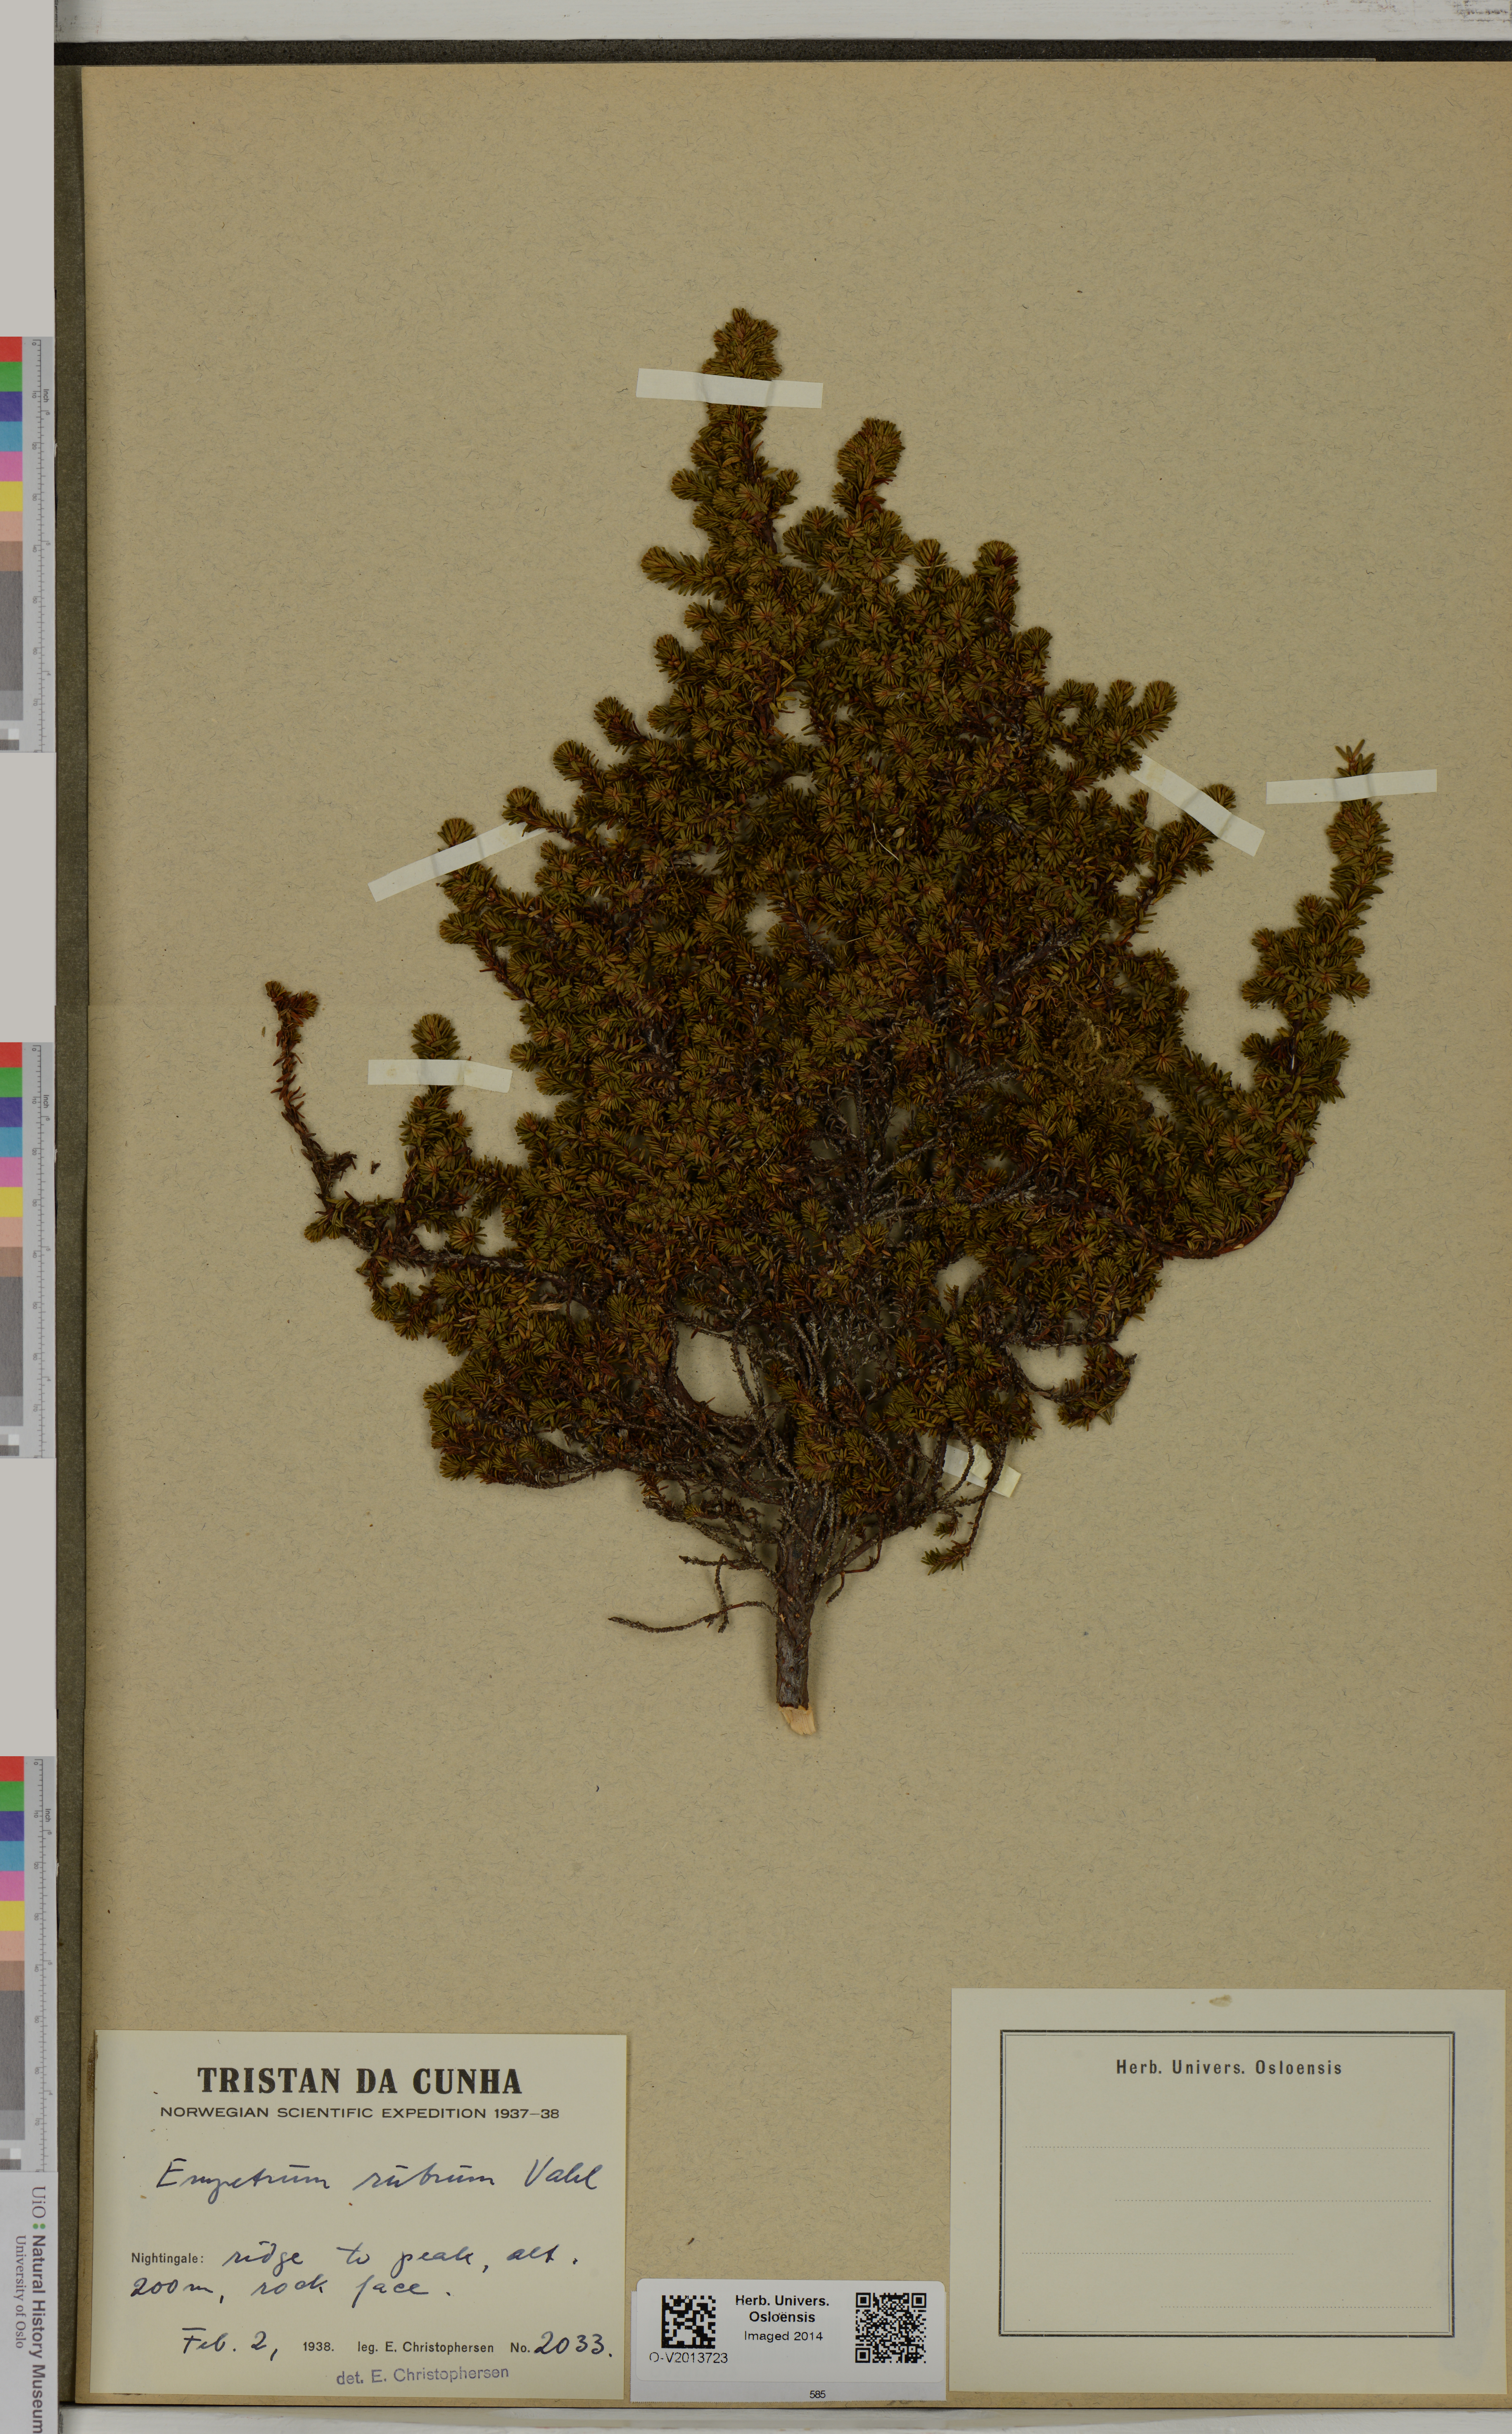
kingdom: Plantae
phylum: Tracheophyta
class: Magnoliopsida
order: Ericales
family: Ericaceae
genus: Empetrum
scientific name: Empetrum rubrum
